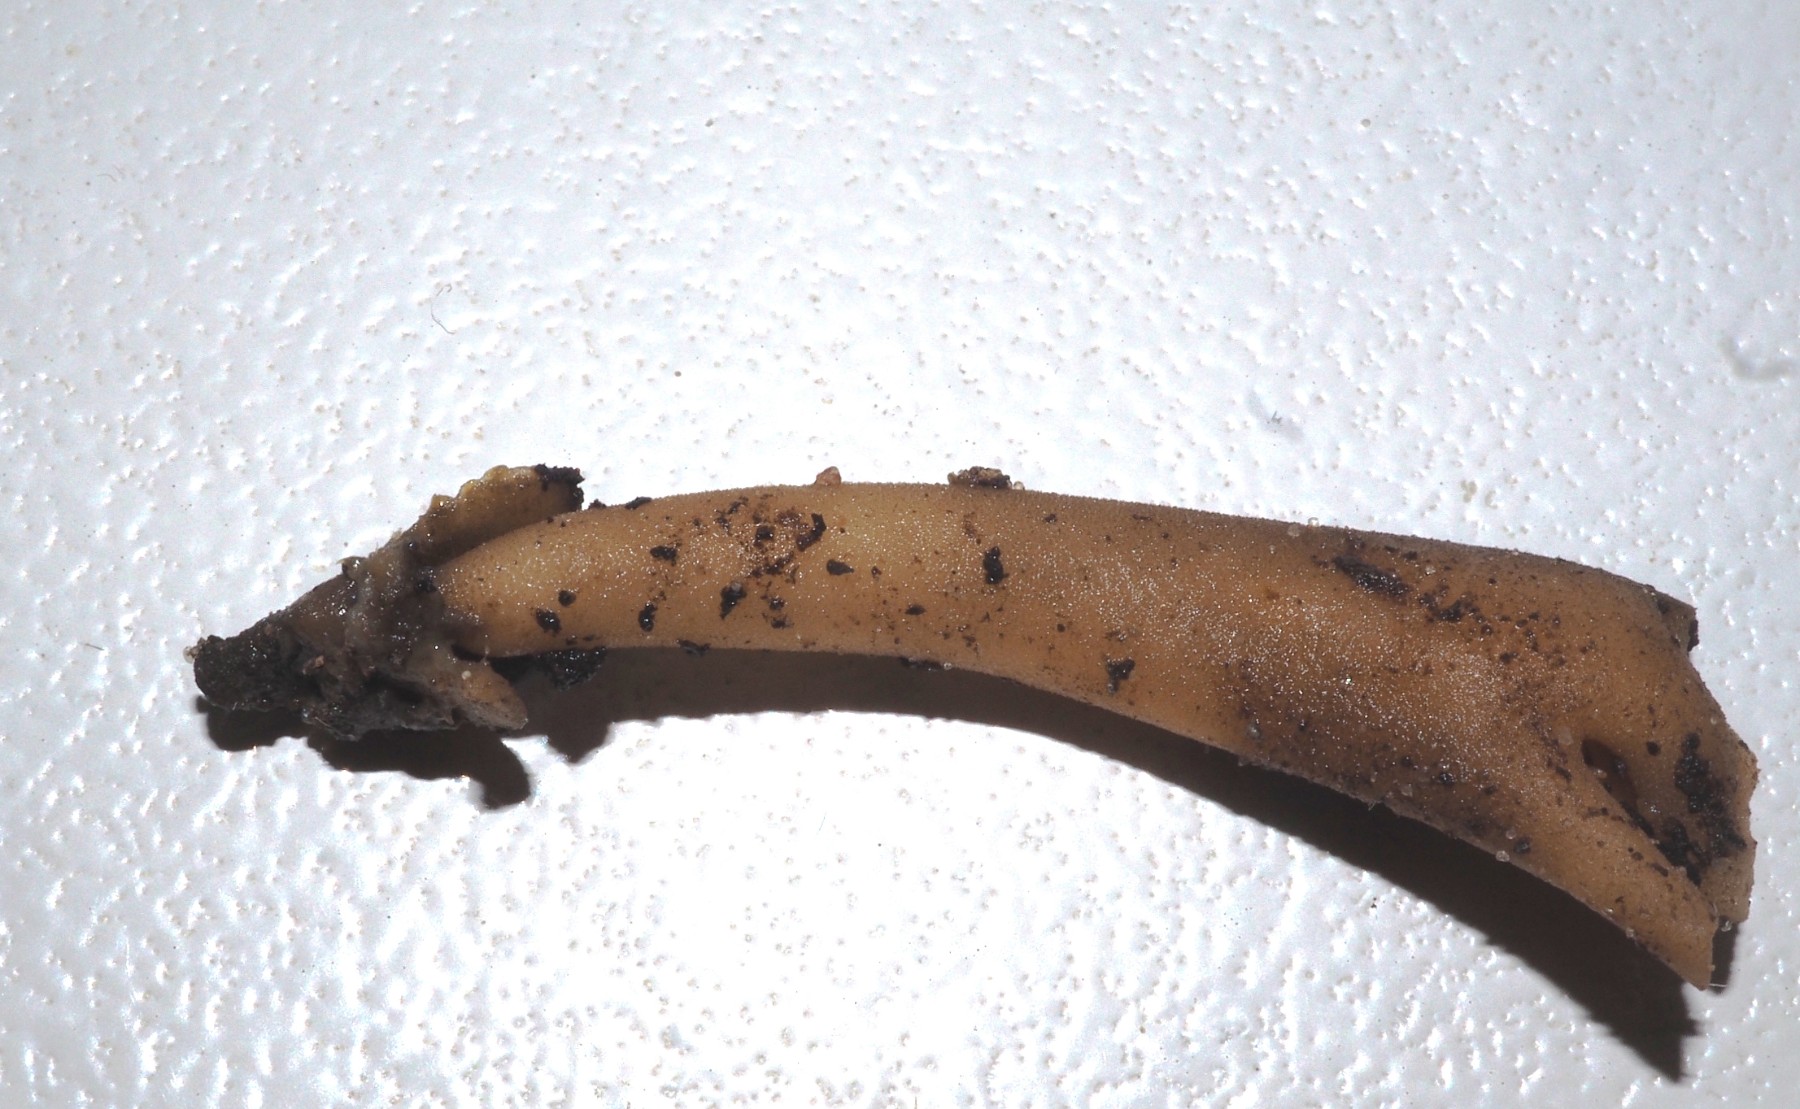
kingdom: Fungi
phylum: Ascomycota
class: Pezizomycetes
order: Pezizales
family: Helvellaceae
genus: Helvella
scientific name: Helvella
